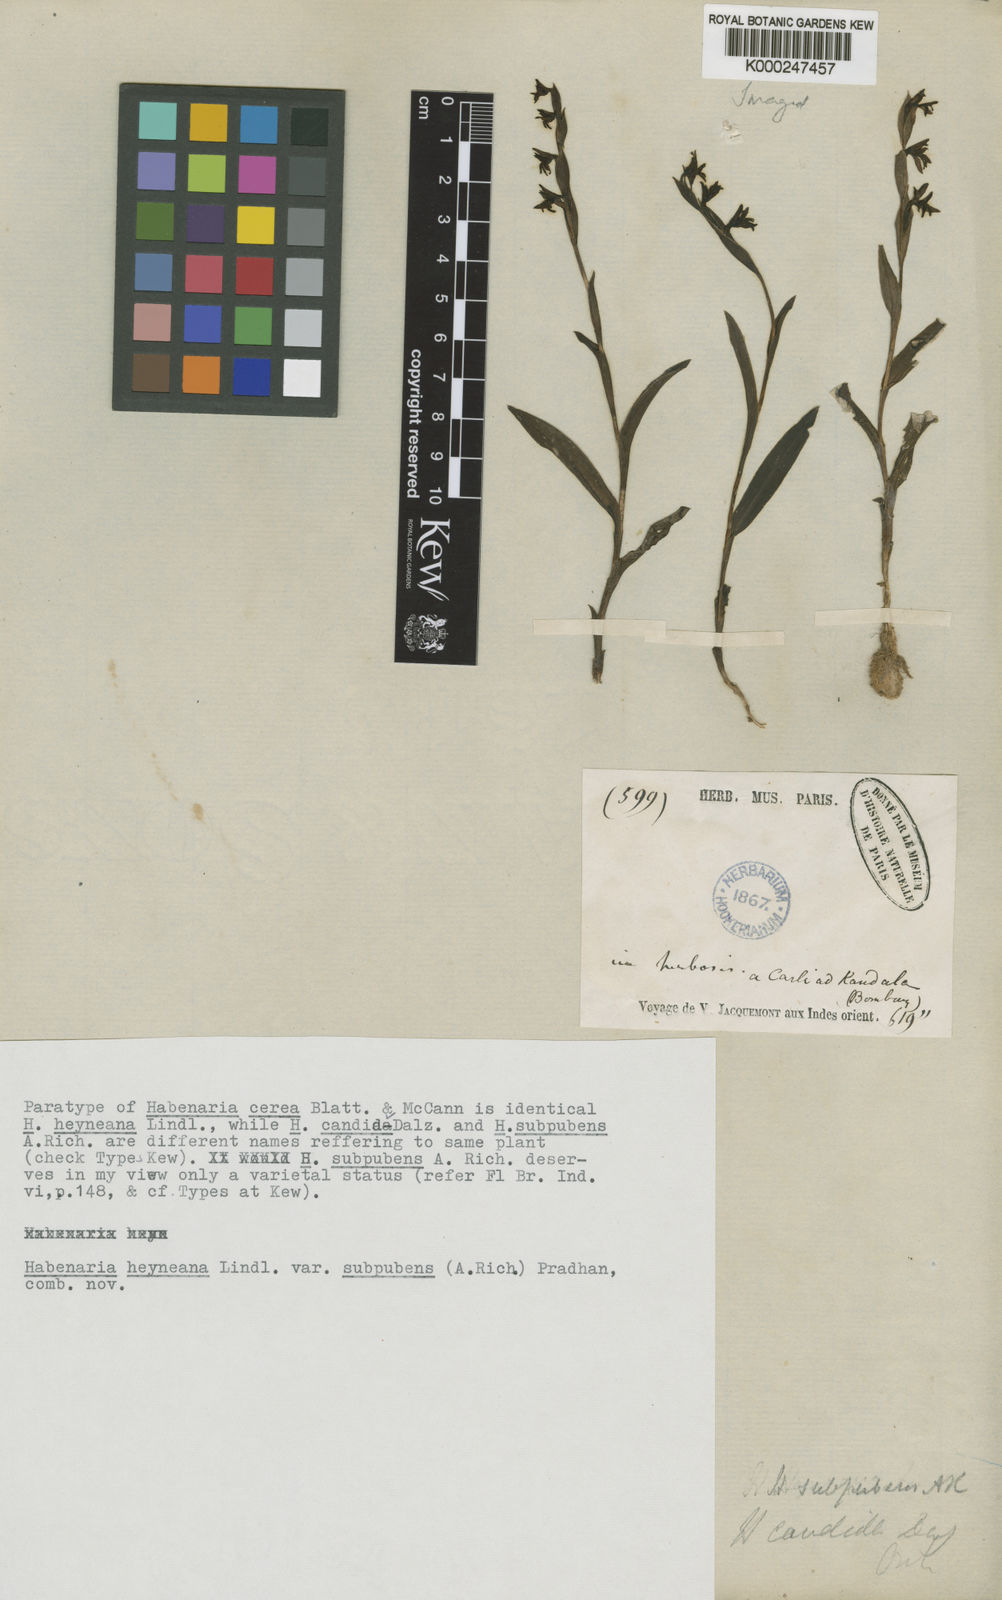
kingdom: Plantae
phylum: Tracheophyta
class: Liliopsida
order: Asparagales
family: Orchidaceae
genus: Habenaria
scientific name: Habenaria heyneana
